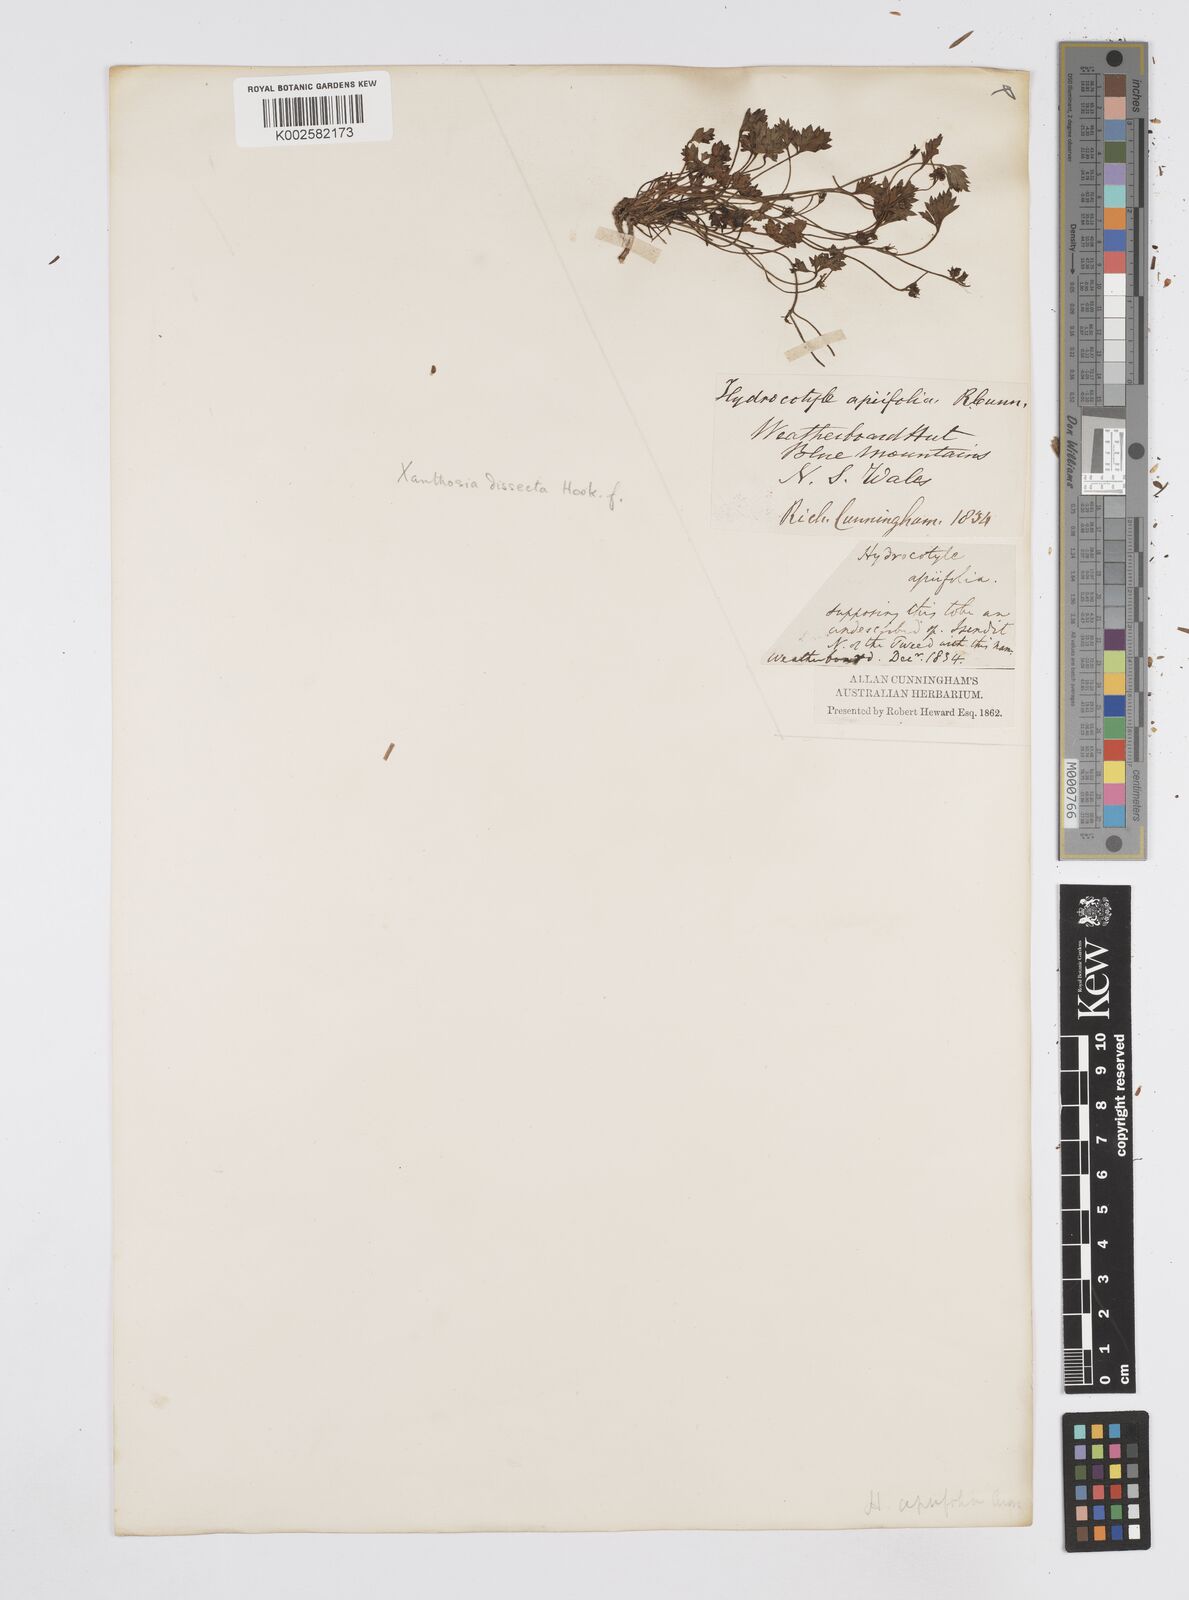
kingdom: Plantae
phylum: Tracheophyta
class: Magnoliopsida
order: Apiales
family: Apiaceae
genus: Xanthosia
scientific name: Xanthosia dissecta
